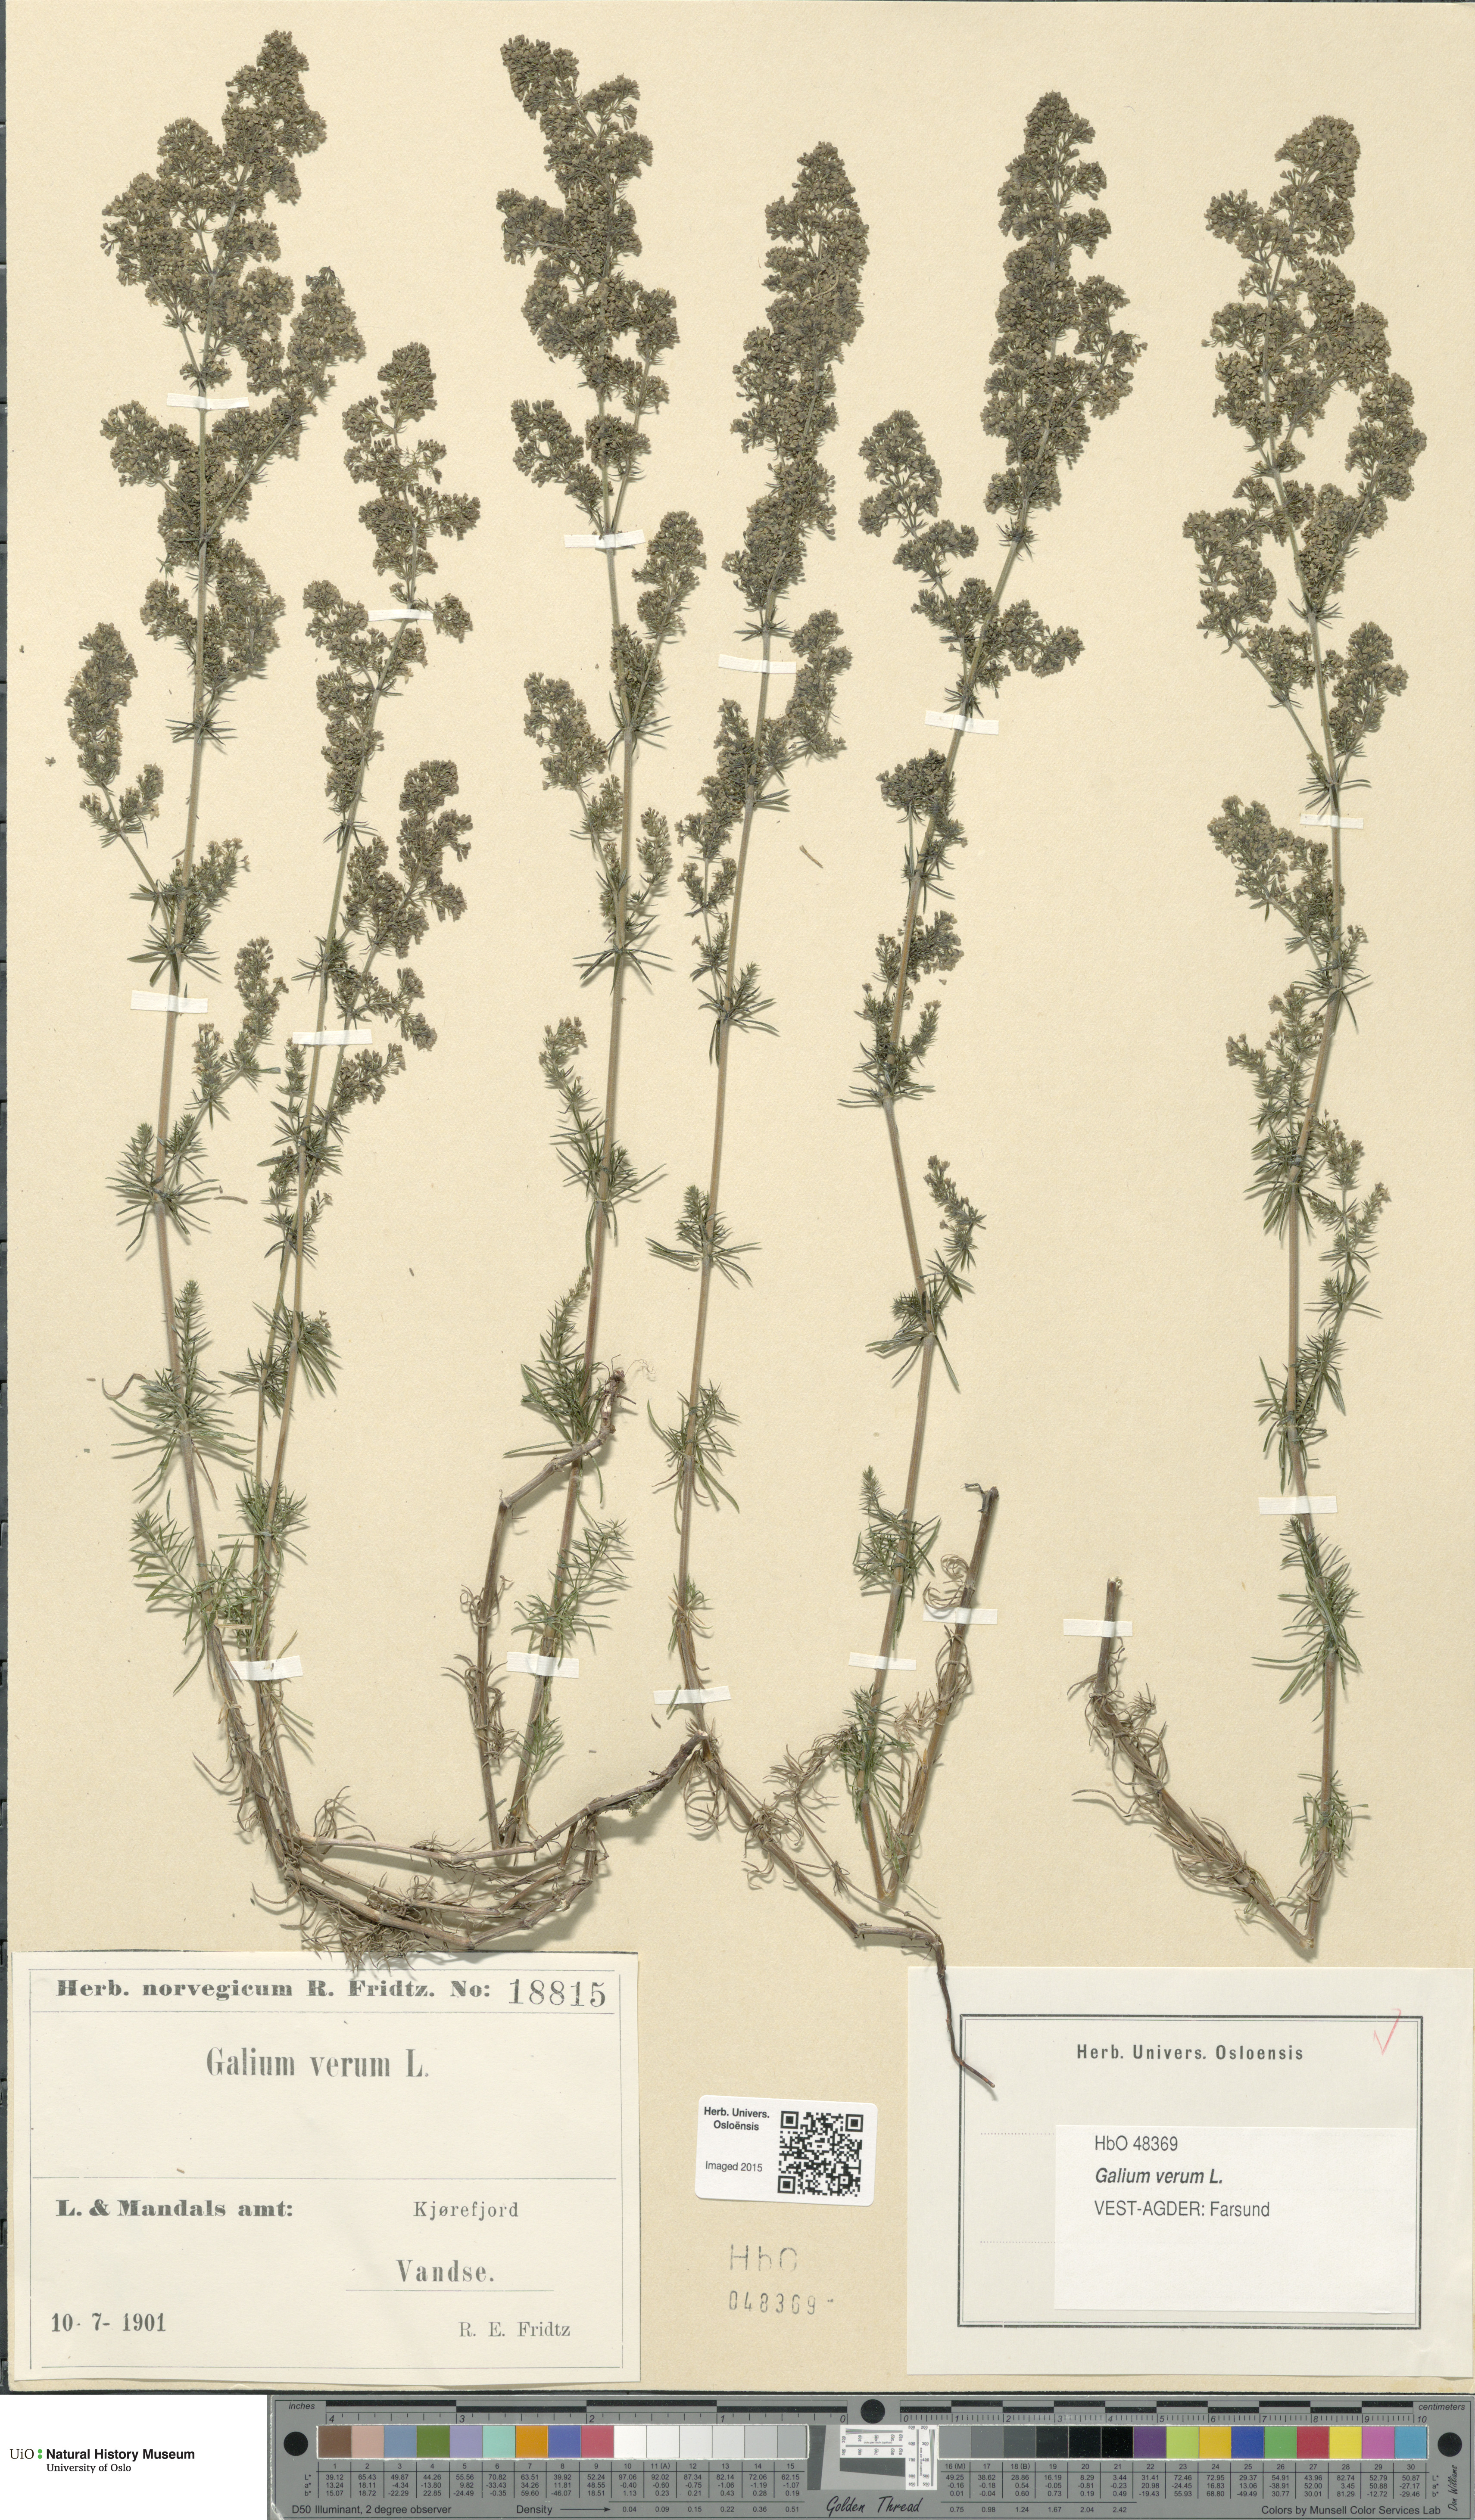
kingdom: Plantae
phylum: Tracheophyta
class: Magnoliopsida
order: Gentianales
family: Rubiaceae
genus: Galium
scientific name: Galium verum
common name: Lady's bedstraw
